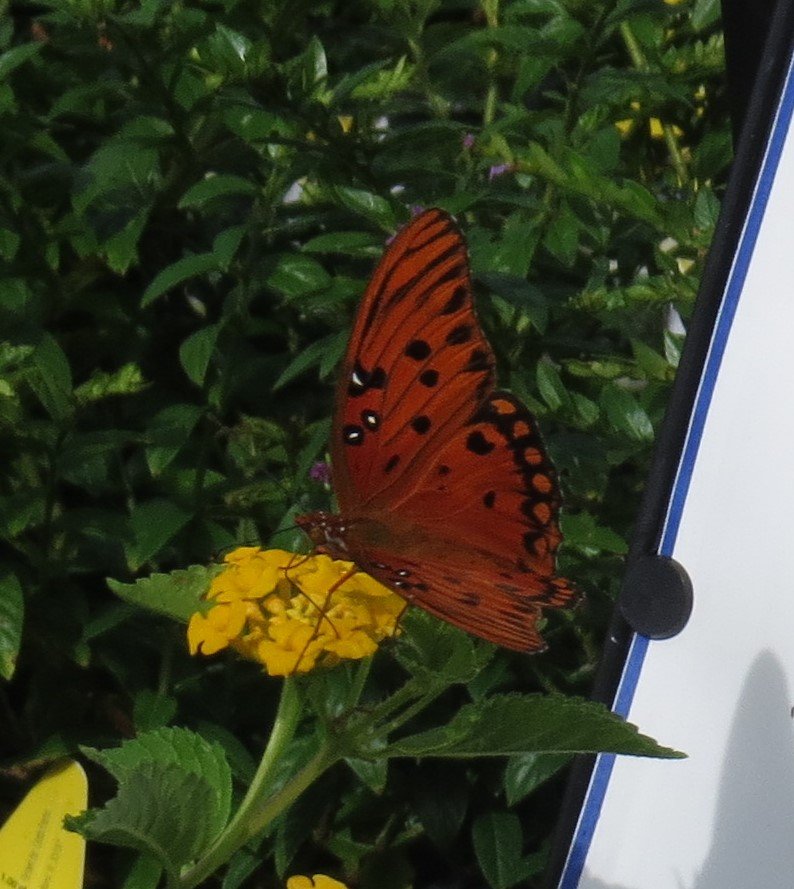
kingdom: Animalia
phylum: Arthropoda
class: Insecta
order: Lepidoptera
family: Nymphalidae
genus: Dione
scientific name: Dione vanillae
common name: Gulf Fritillary
